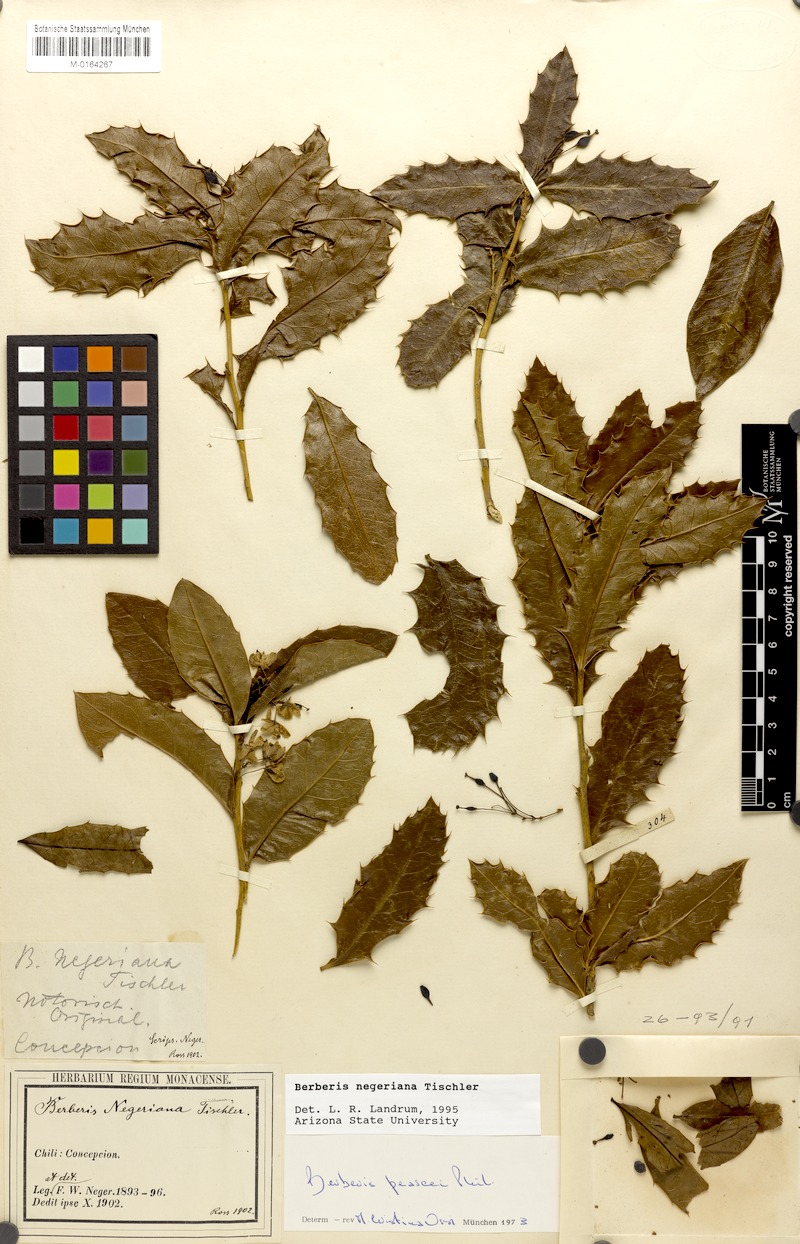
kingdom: Plantae
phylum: Tracheophyta
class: Magnoliopsida
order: Ranunculales
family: Berberidaceae
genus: Berberis
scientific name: Berberis negeriana
